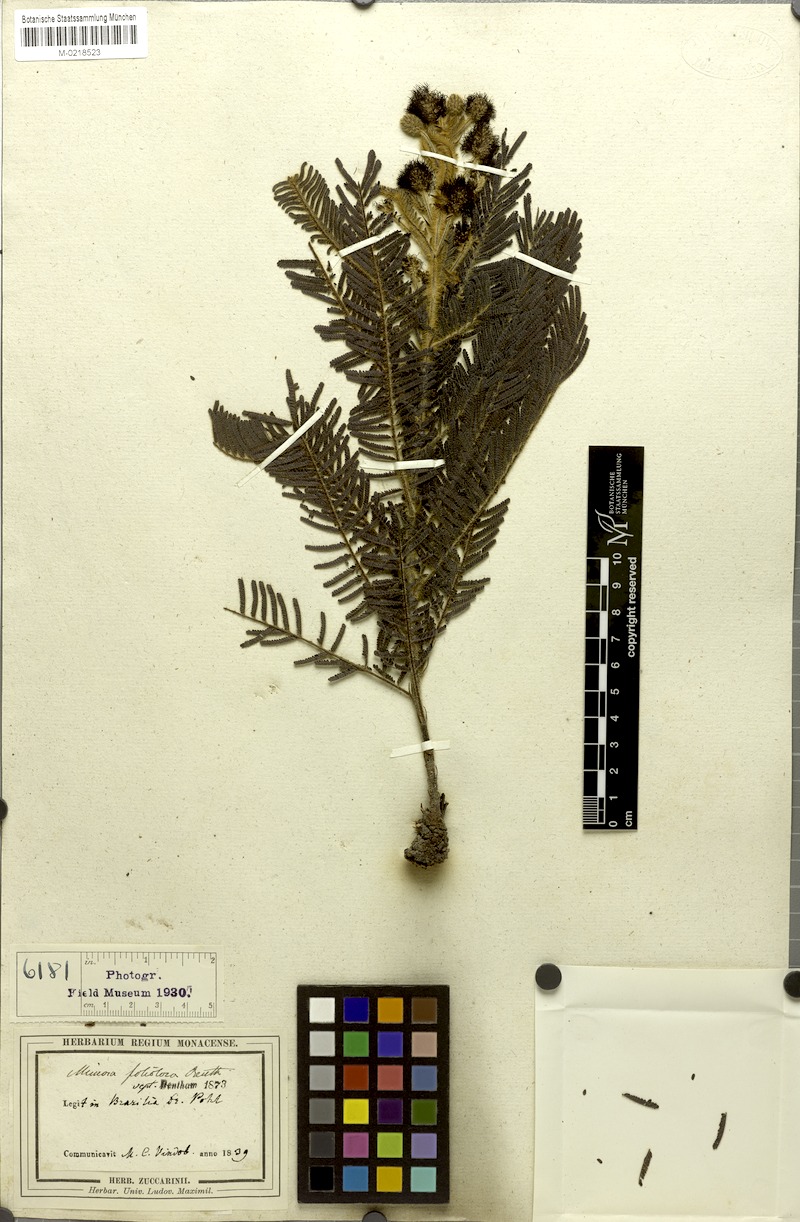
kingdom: Plantae
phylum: Tracheophyta
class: Magnoliopsida
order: Fabales
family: Fabaceae
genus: Mimosa
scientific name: Mimosa foliolosa
